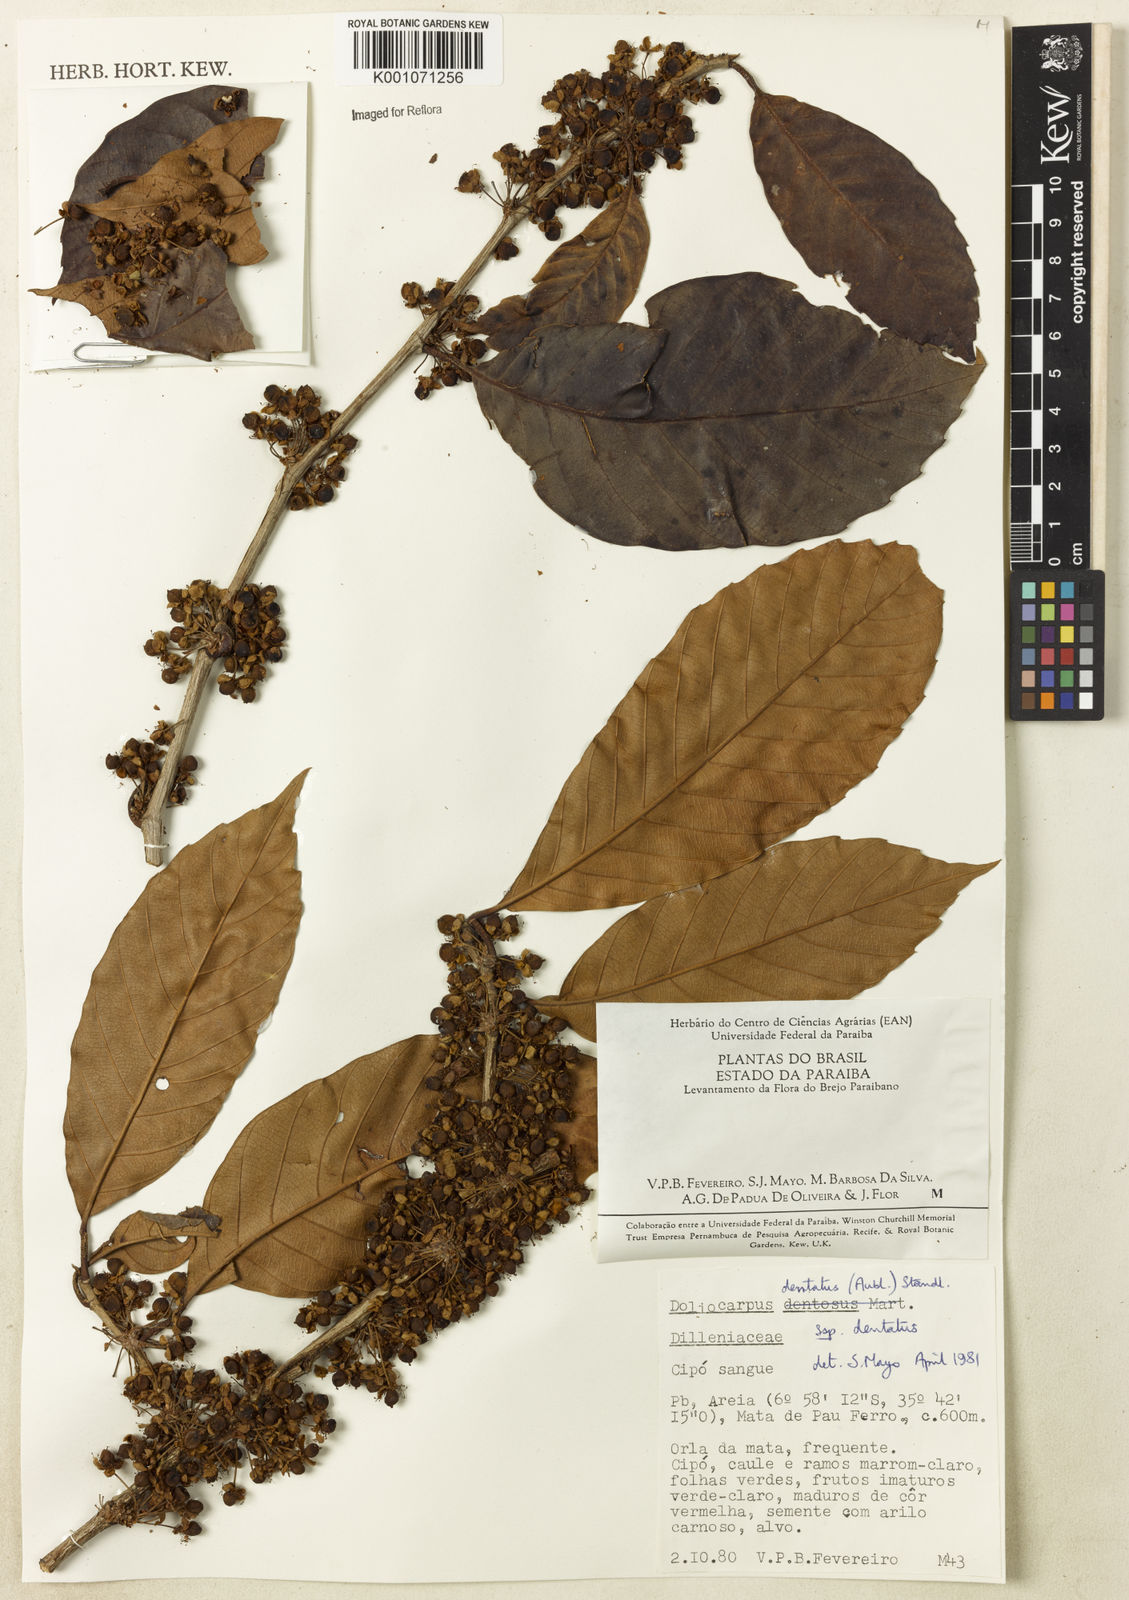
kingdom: Plantae
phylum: Tracheophyta
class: Magnoliopsida
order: Dilleniales
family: Dilleniaceae
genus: Doliocarpus
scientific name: Doliocarpus dentatus
